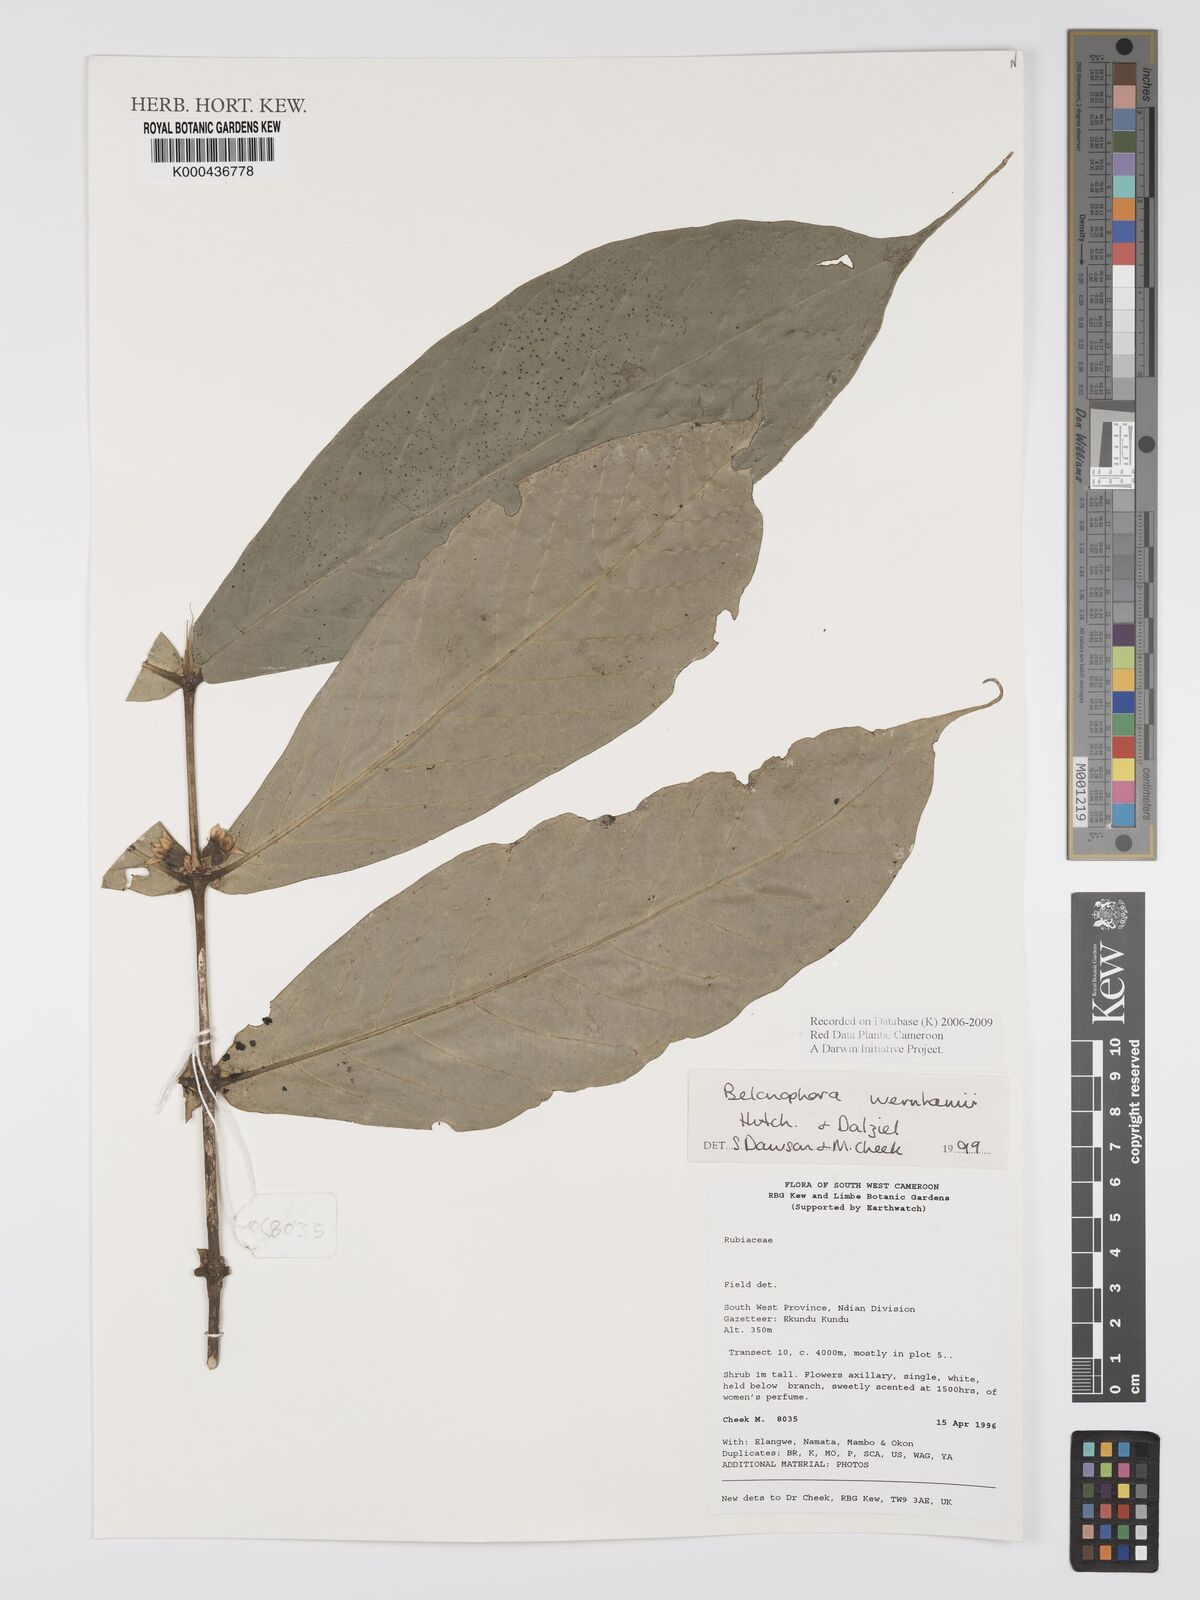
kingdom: Plantae
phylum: Tracheophyta
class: Magnoliopsida
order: Gentianales
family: Rubiaceae
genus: Belonophora
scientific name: Belonophora wernhamii
